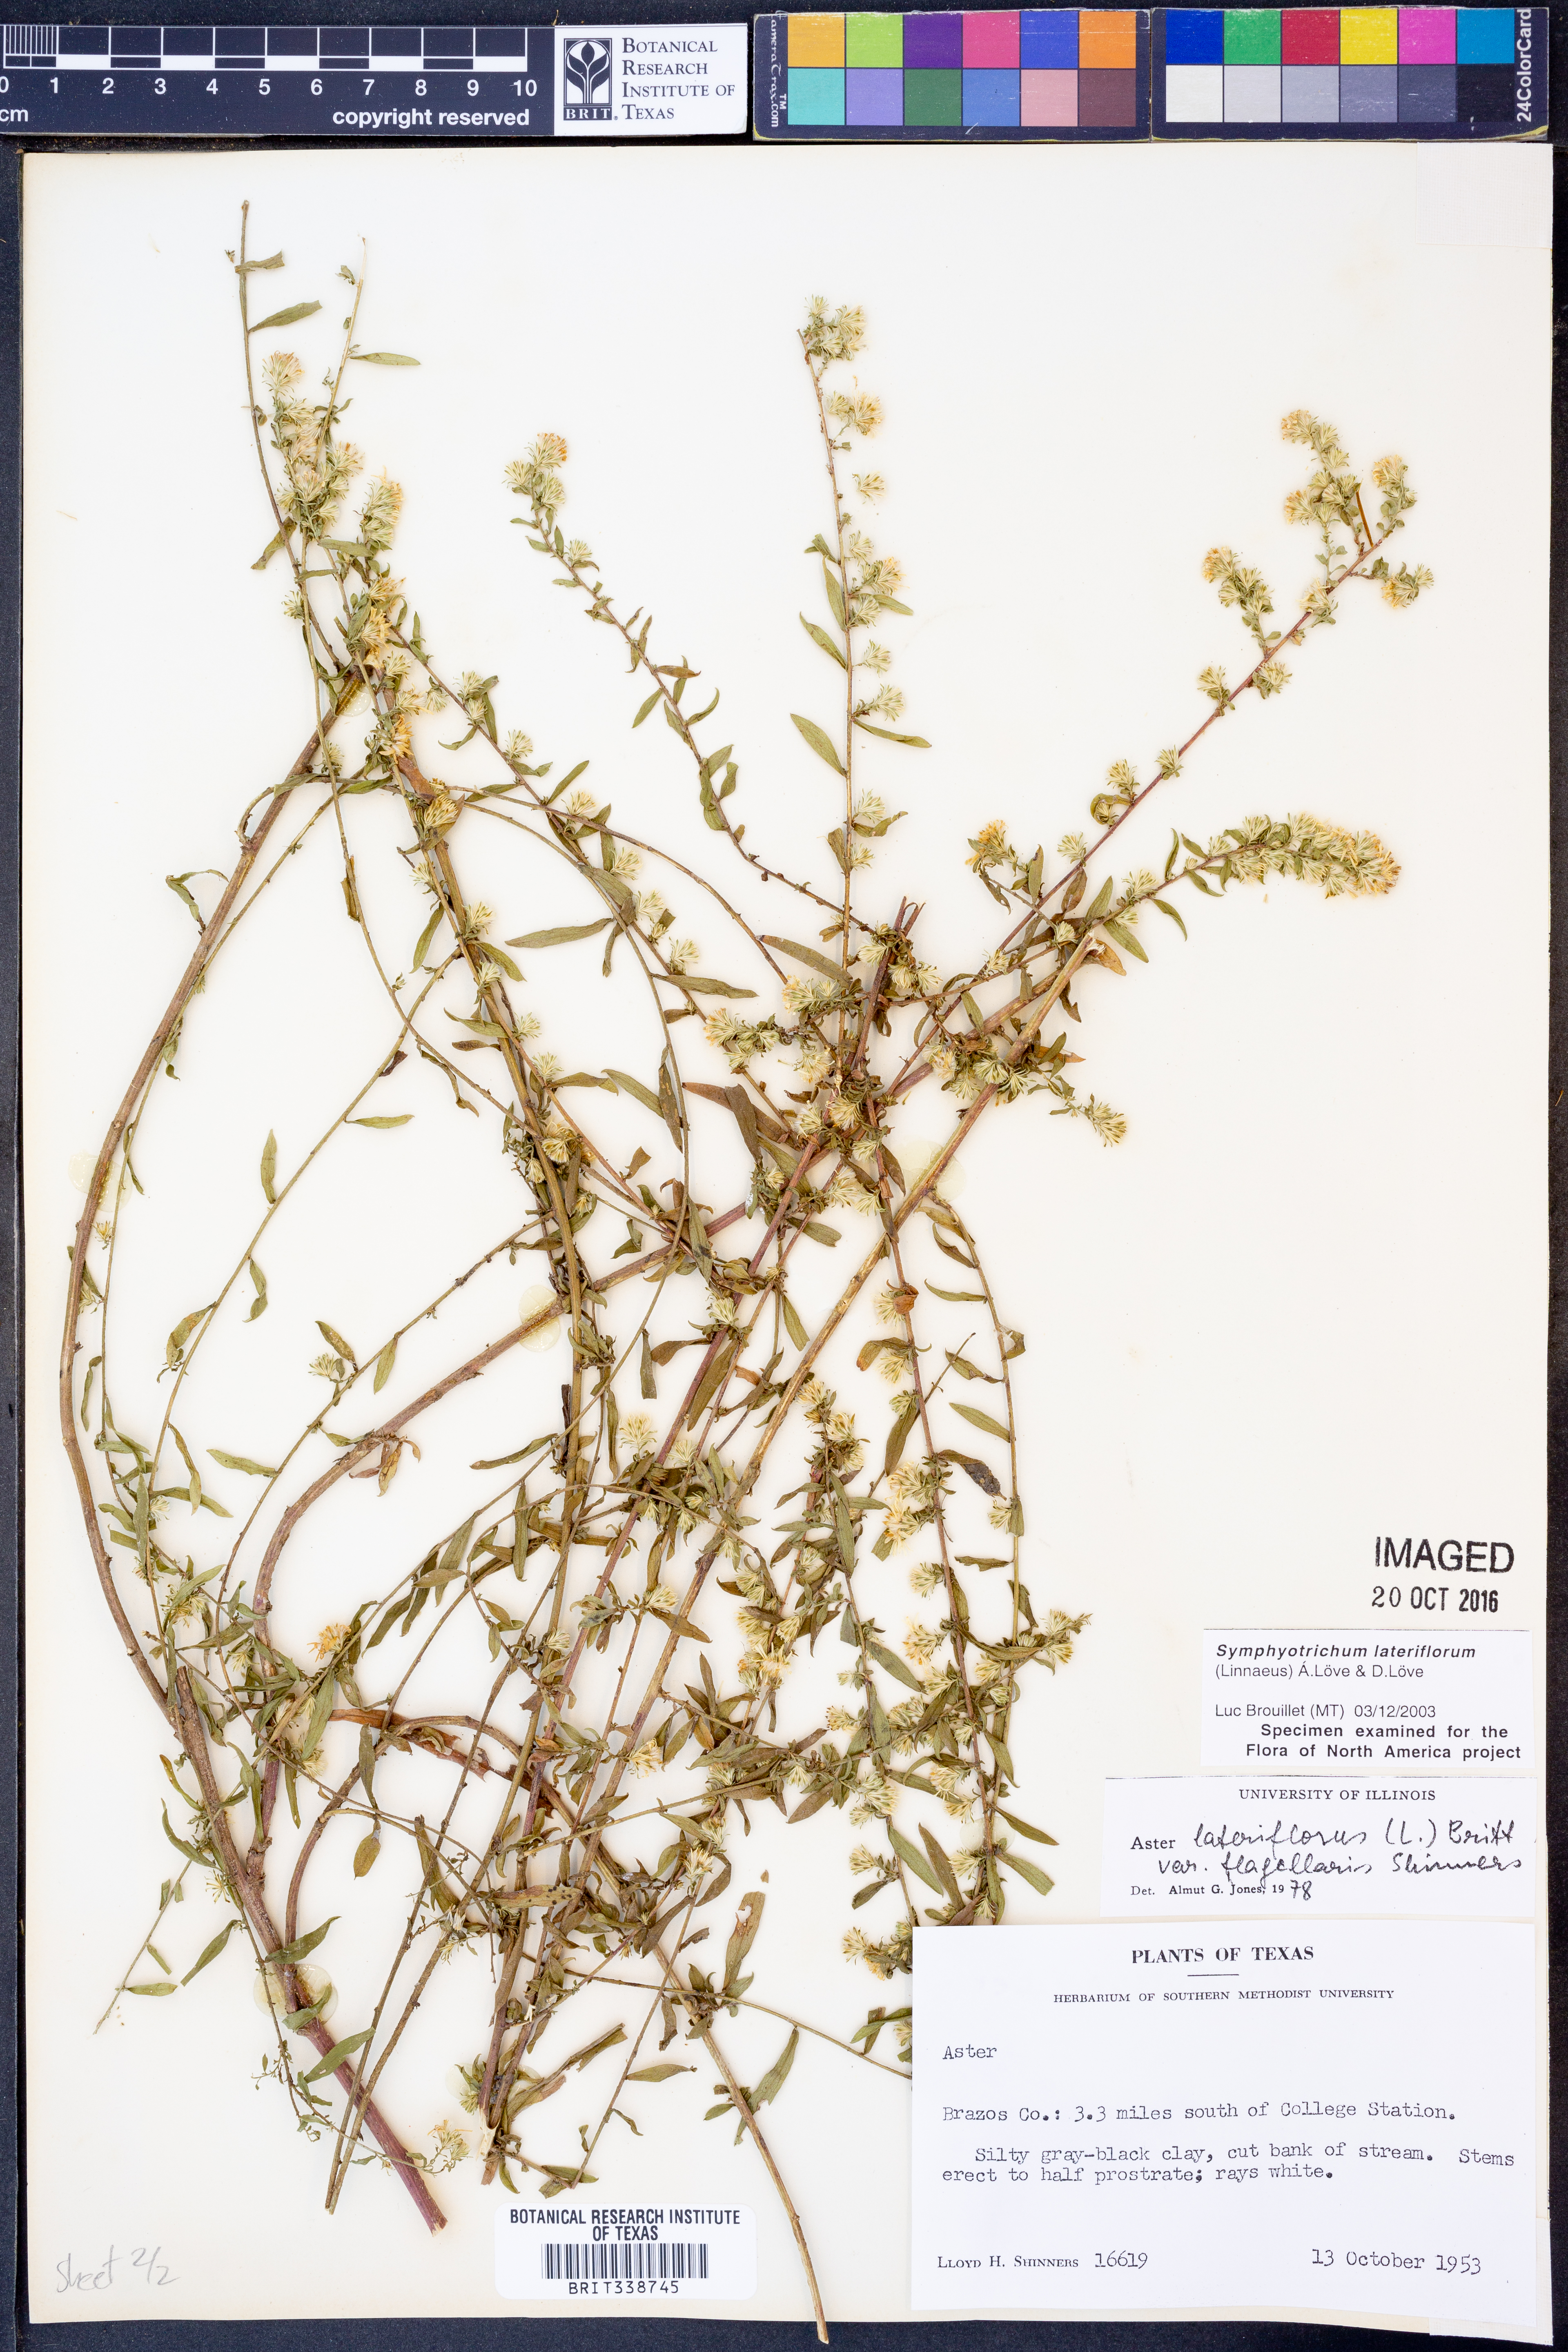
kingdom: Plantae
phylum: Tracheophyta
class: Magnoliopsida
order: Asterales
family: Asteraceae
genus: Symphyotrichum
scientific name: Symphyotrichum lateriflorum
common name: Calico aster
